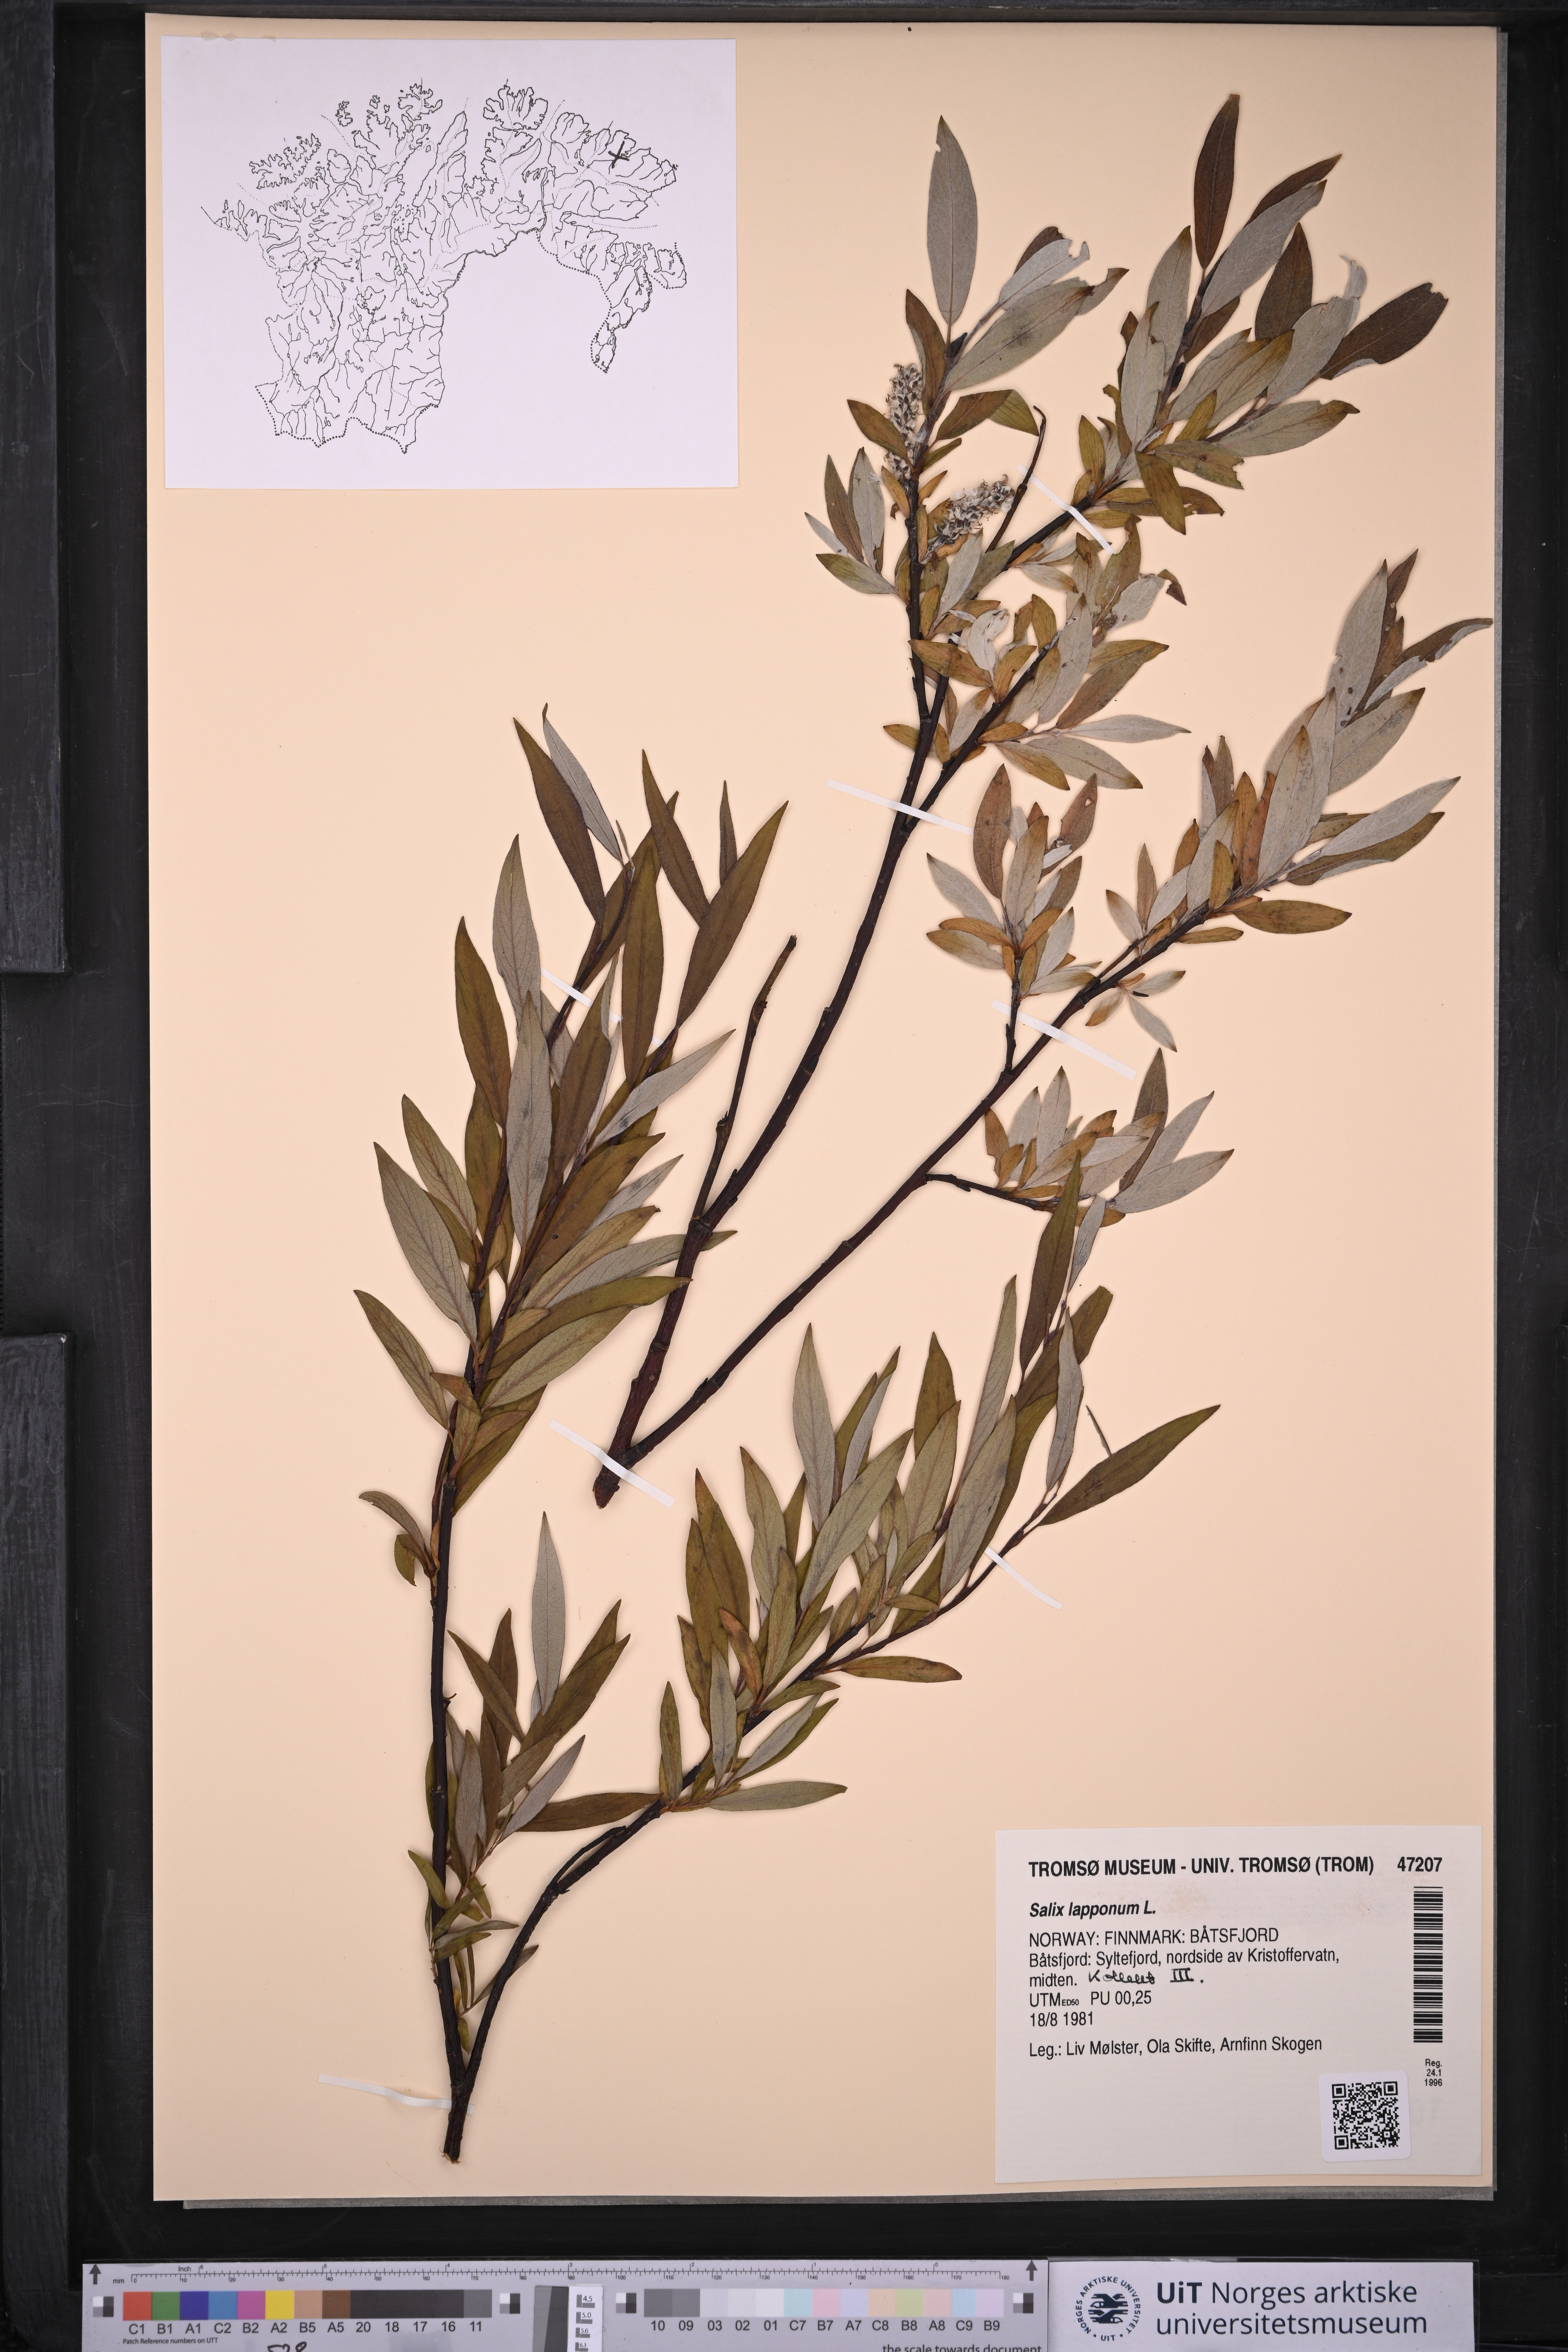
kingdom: Plantae
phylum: Tracheophyta
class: Magnoliopsida
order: Malpighiales
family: Salicaceae
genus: Salix
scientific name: Salix lapponum
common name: Downy willow
